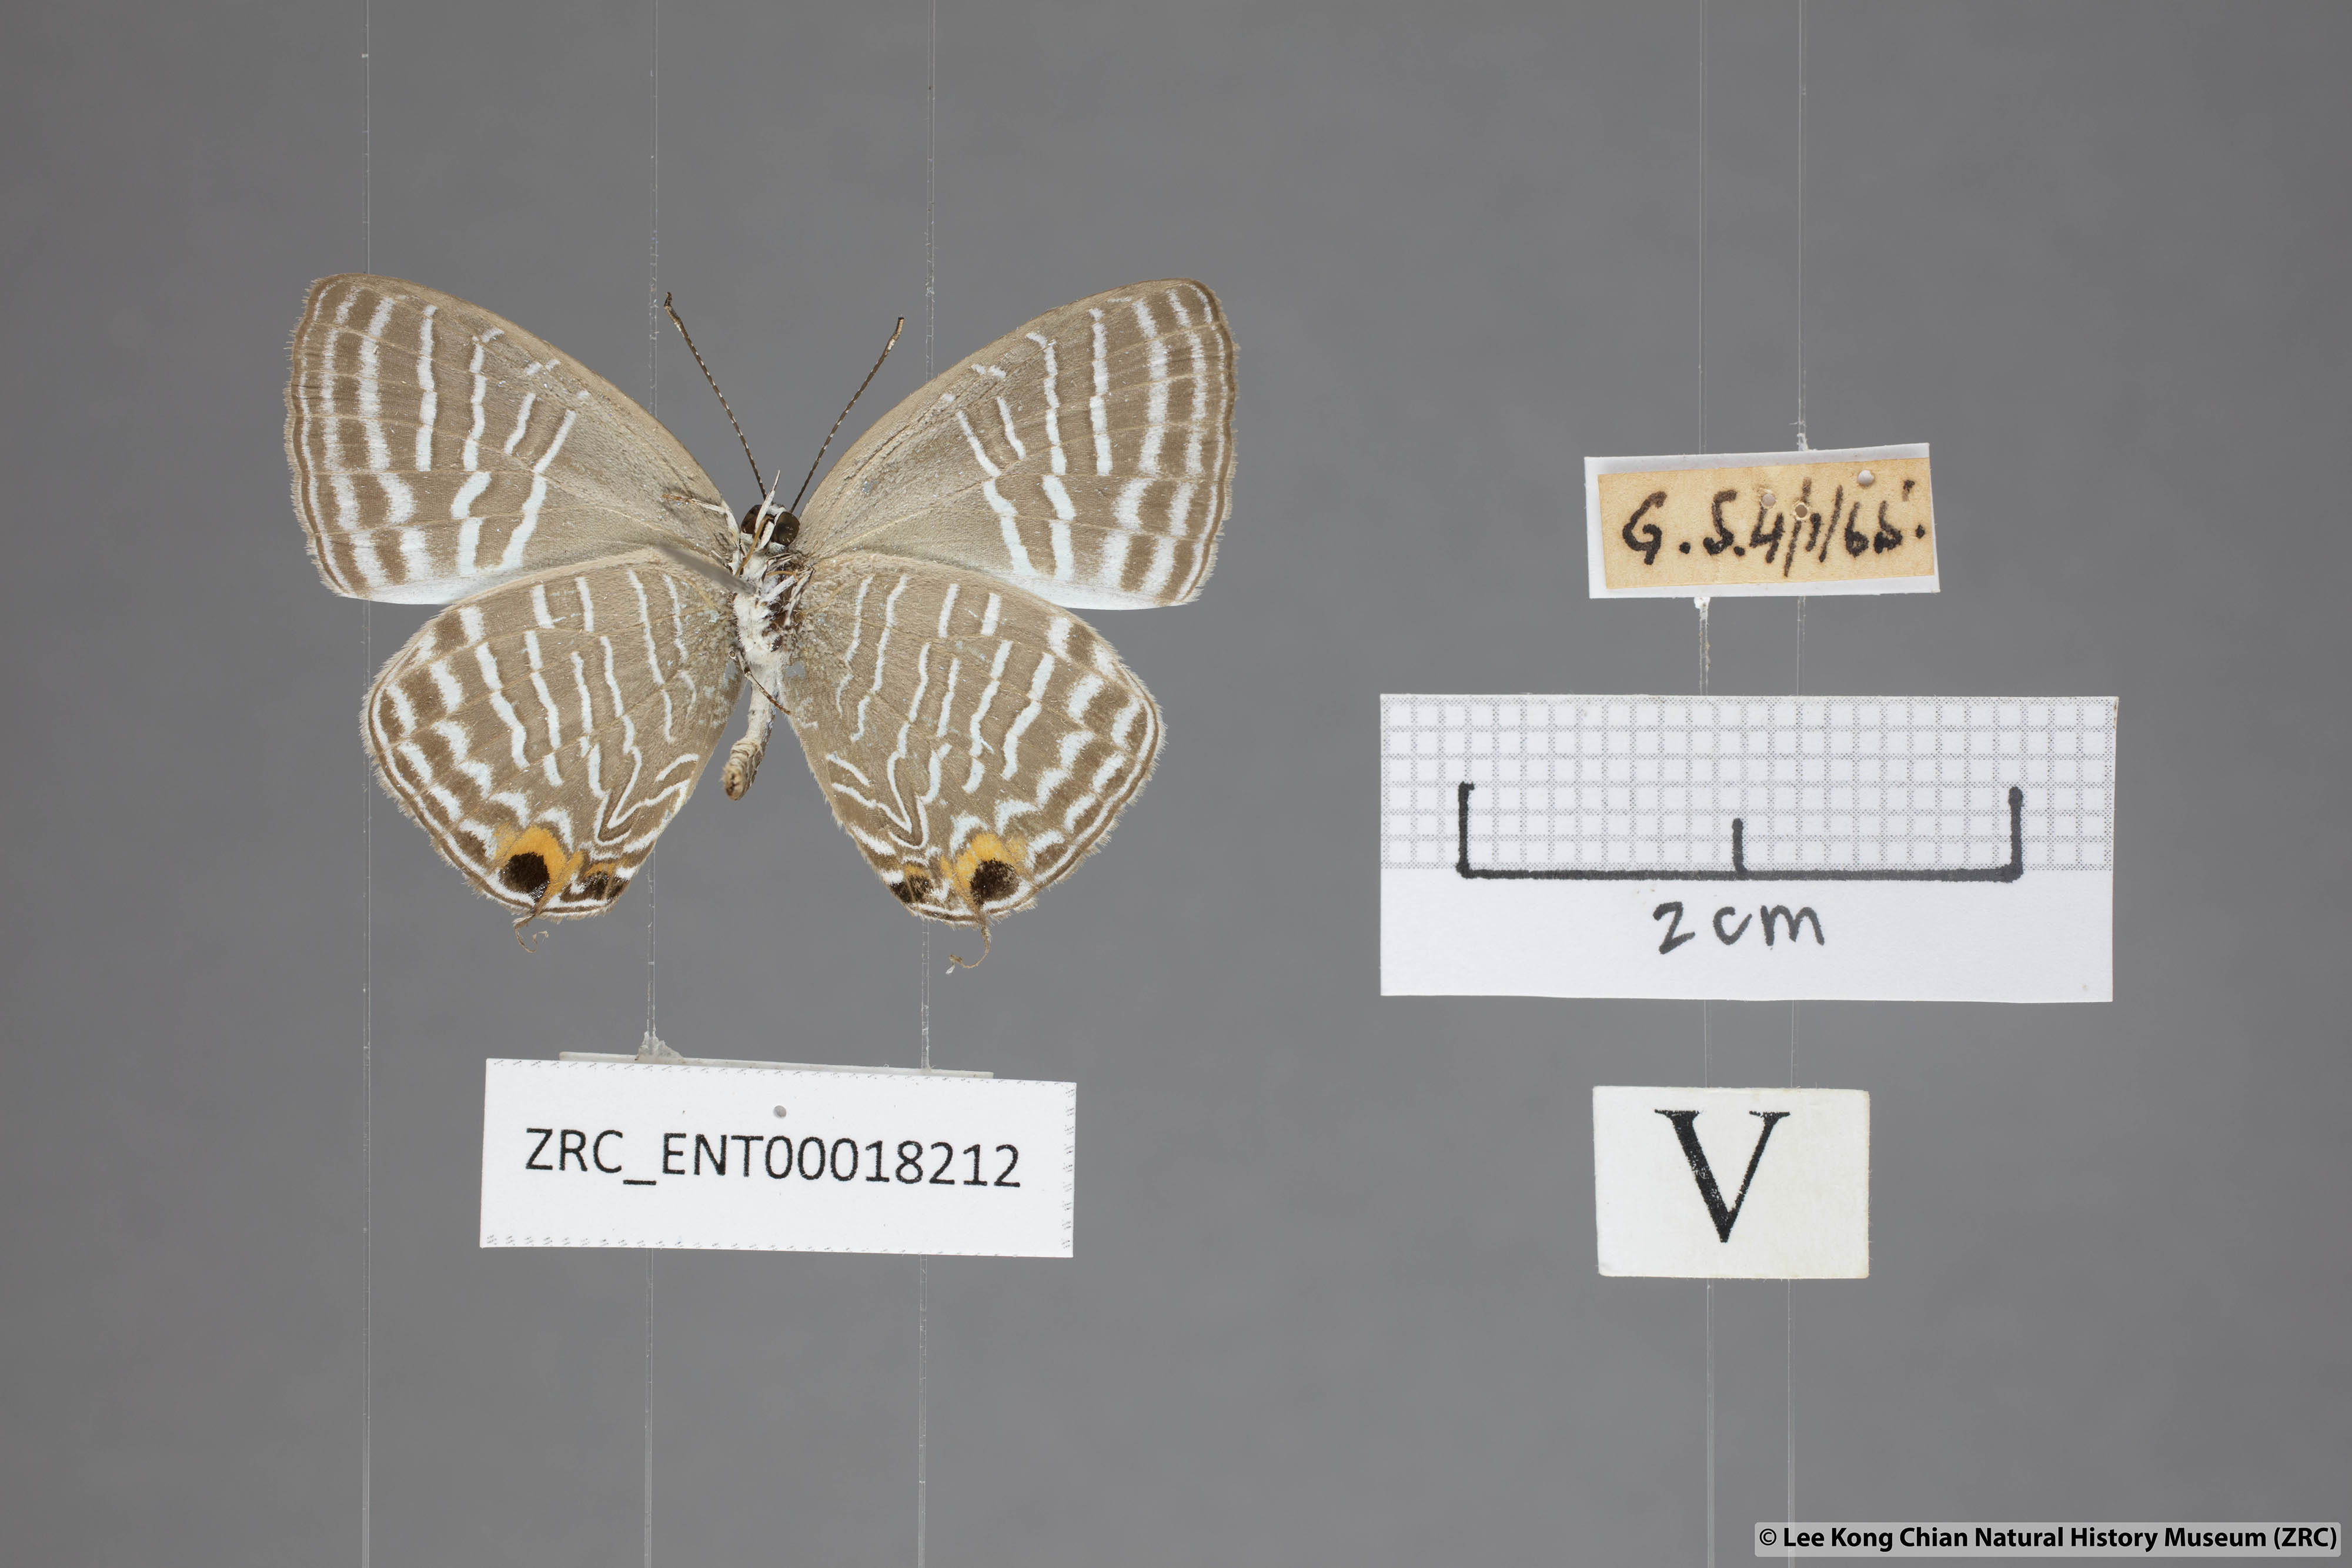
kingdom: Animalia
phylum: Arthropoda
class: Insecta
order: Lepidoptera
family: Lycaenidae
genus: Jamides
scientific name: Jamides zebra
